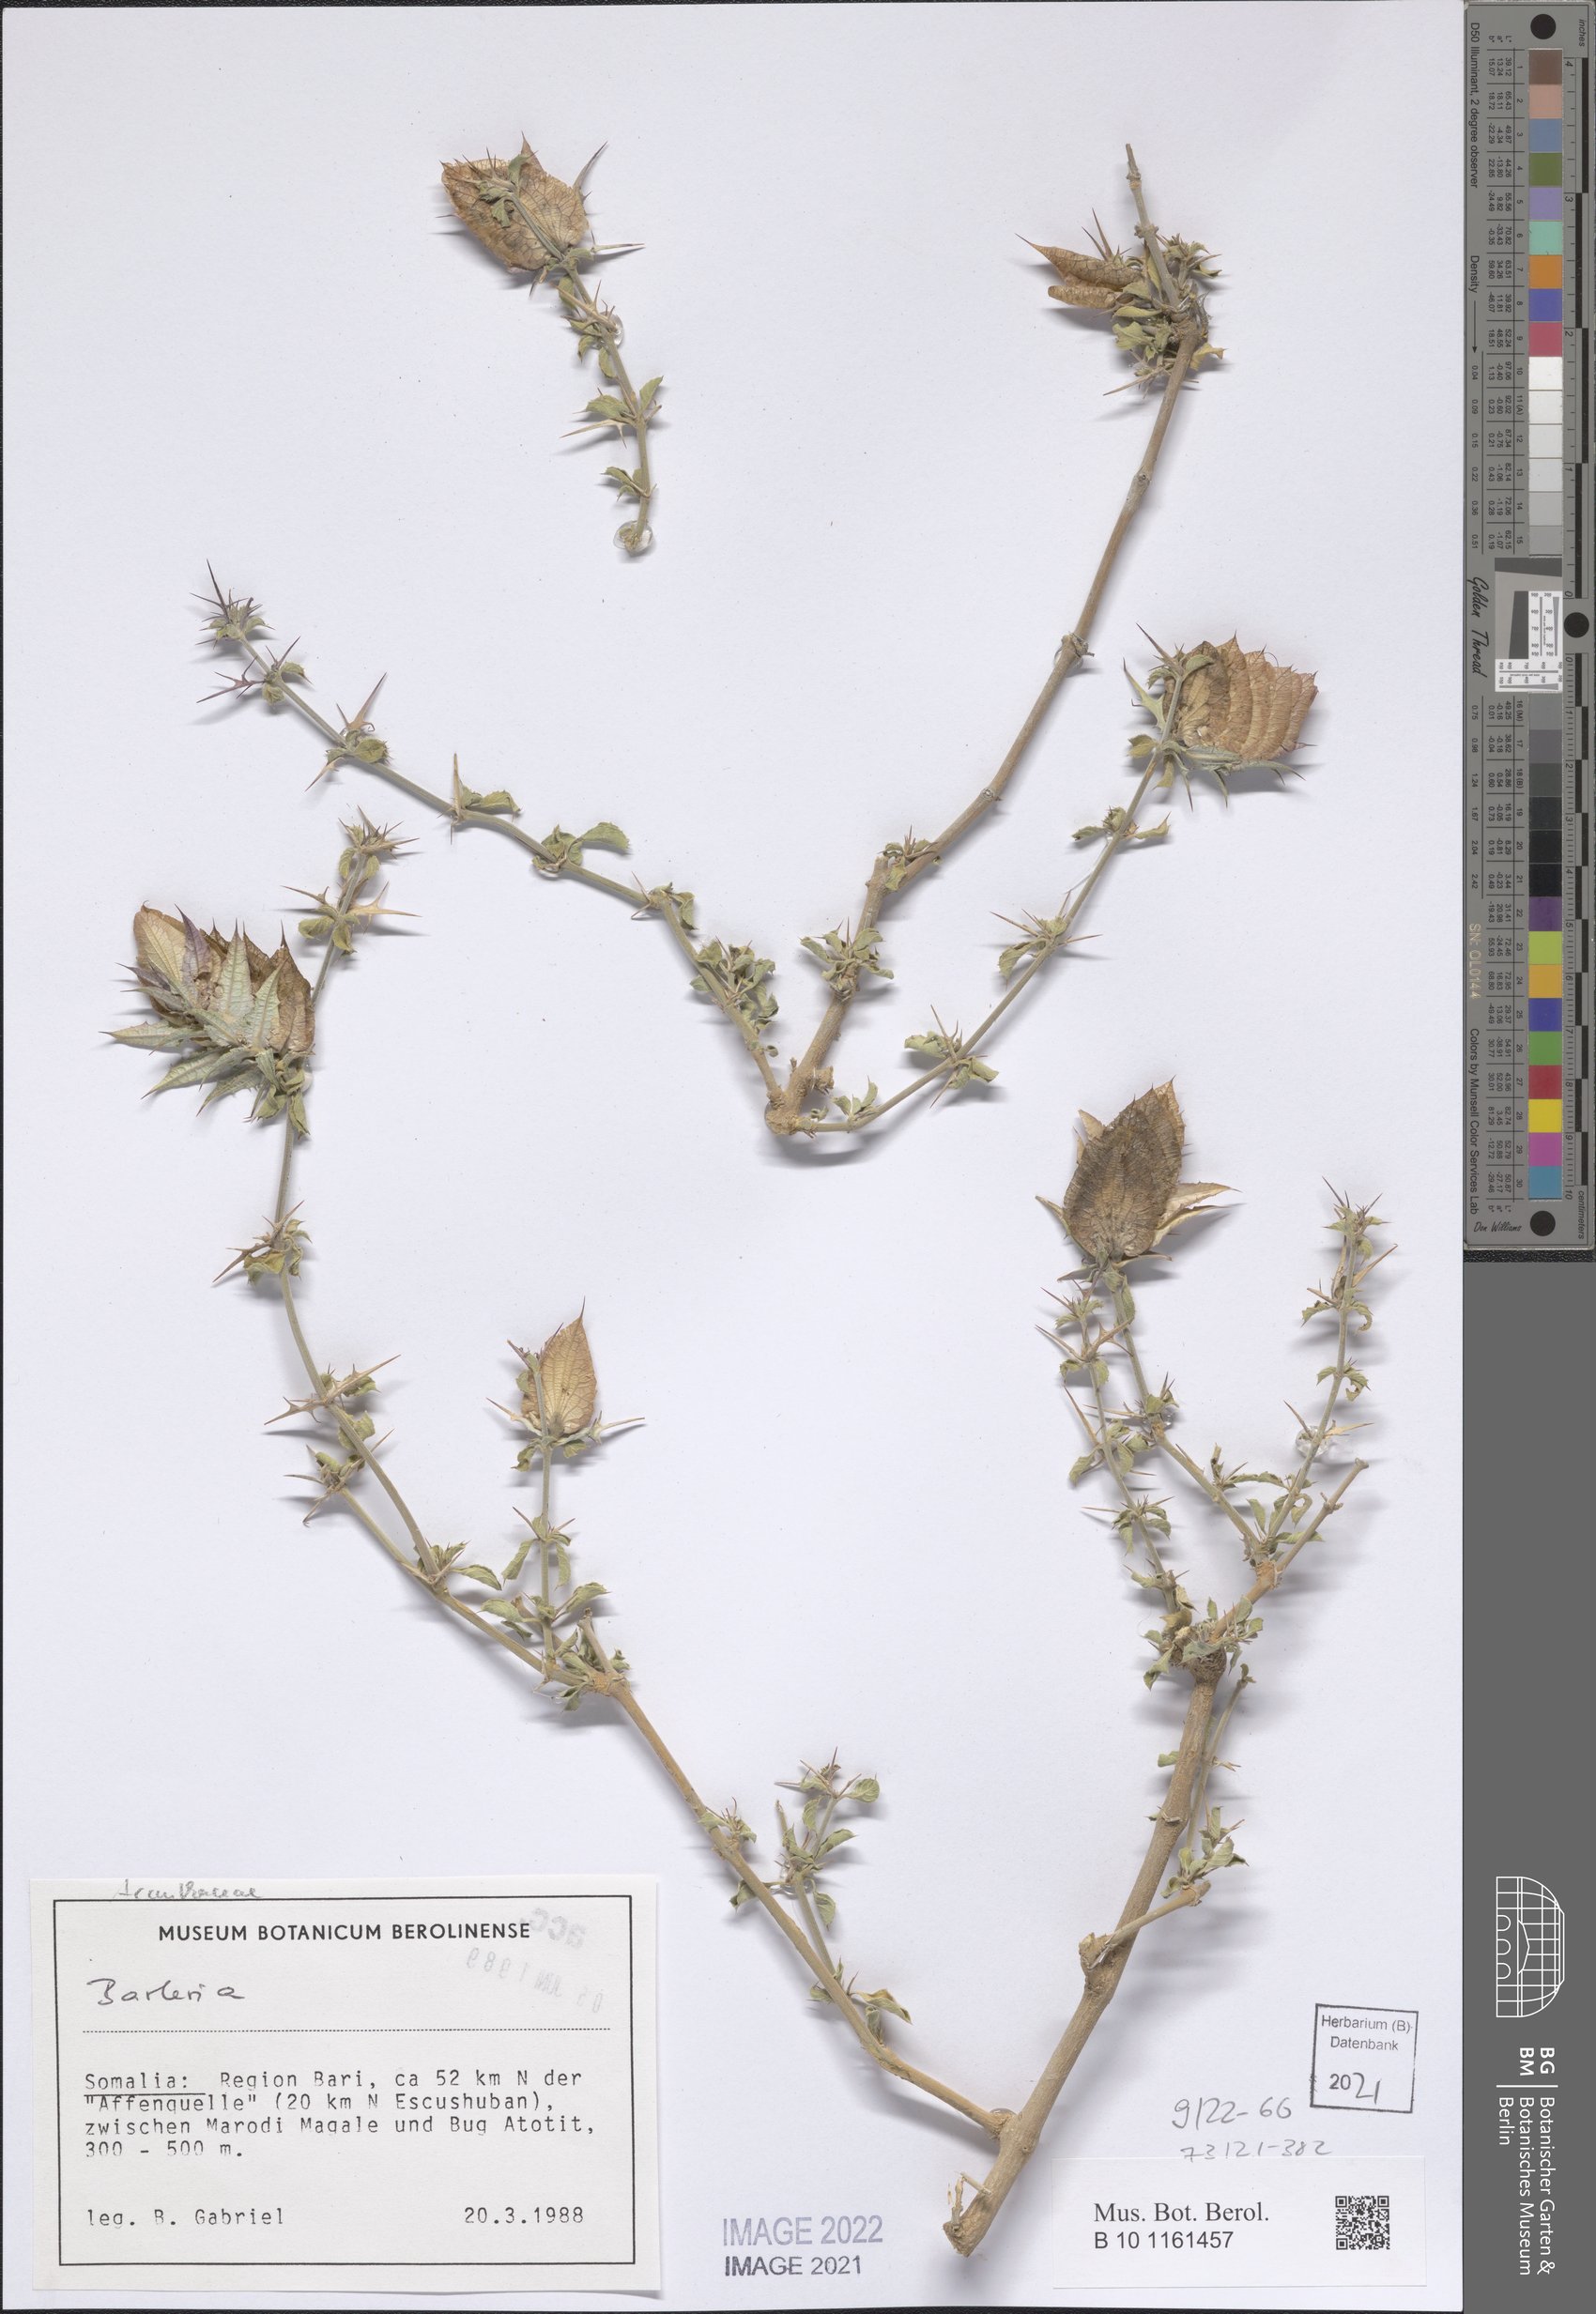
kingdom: Plantae
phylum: Tracheophyta
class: Magnoliopsida
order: Lamiales
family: Acanthaceae
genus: Barleria
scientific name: Barleria
